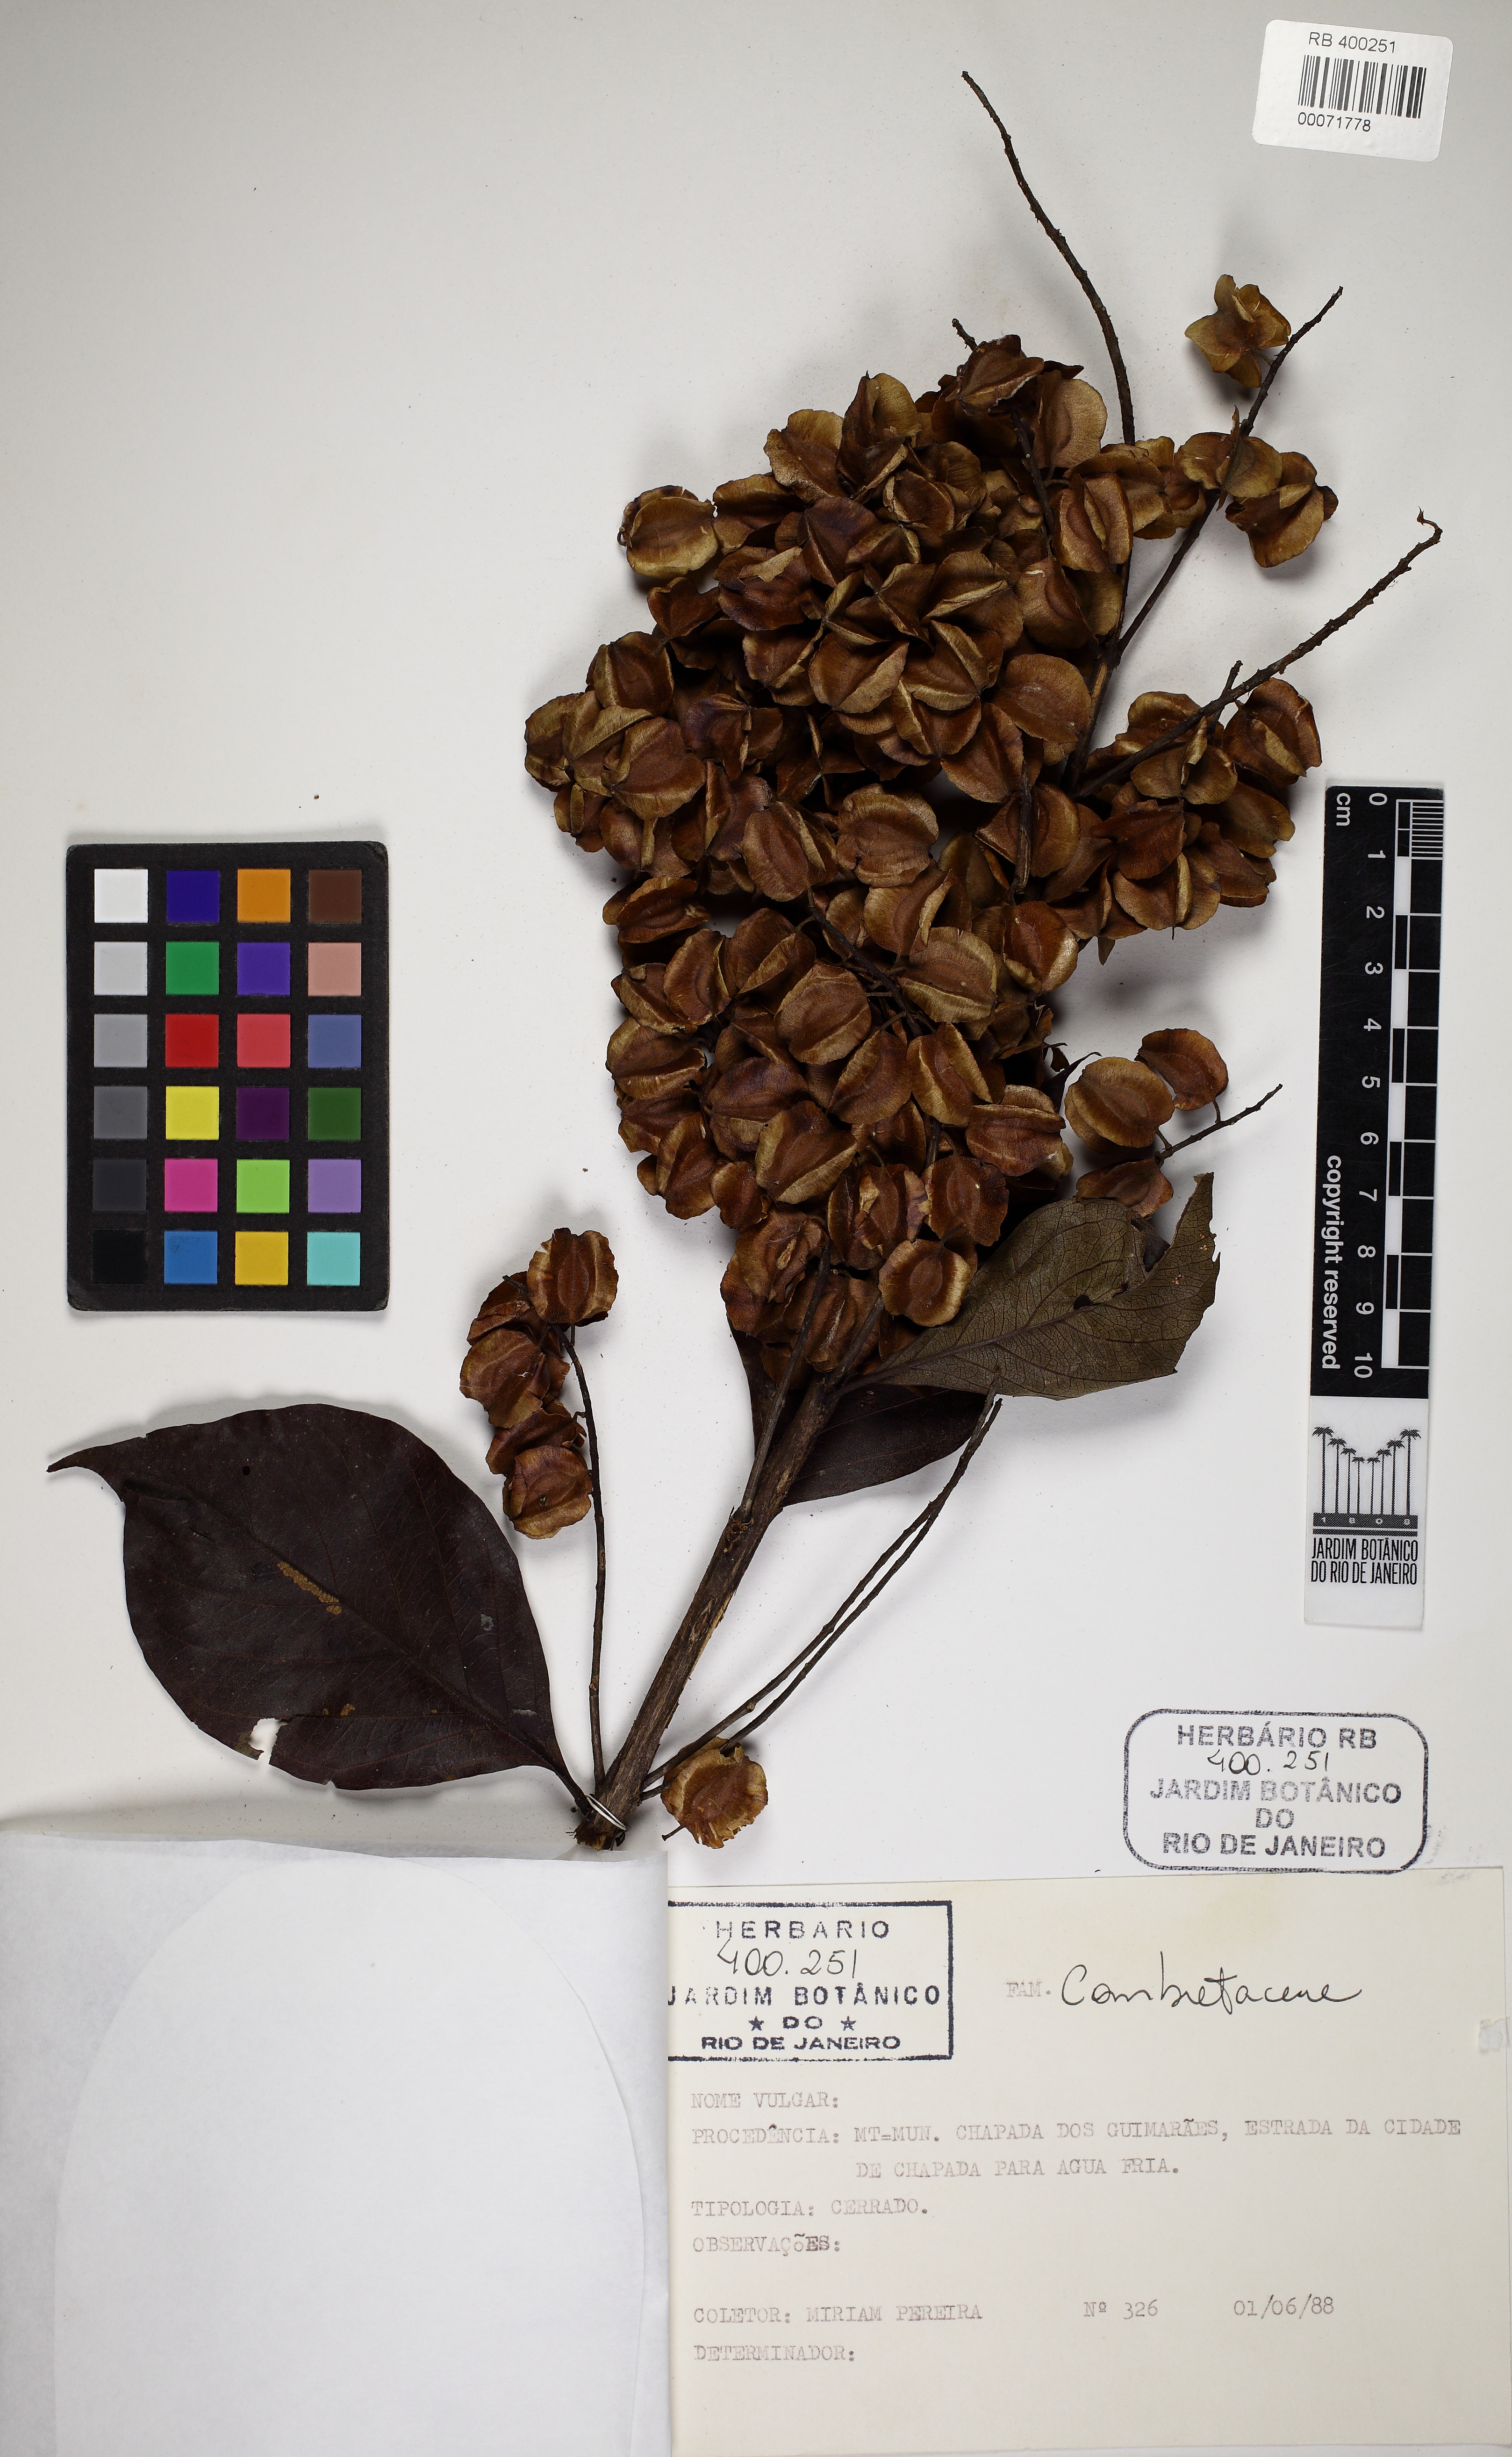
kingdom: Plantae
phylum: Tracheophyta
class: Magnoliopsida
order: Myrtales
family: Combretaceae
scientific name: Combretaceae
